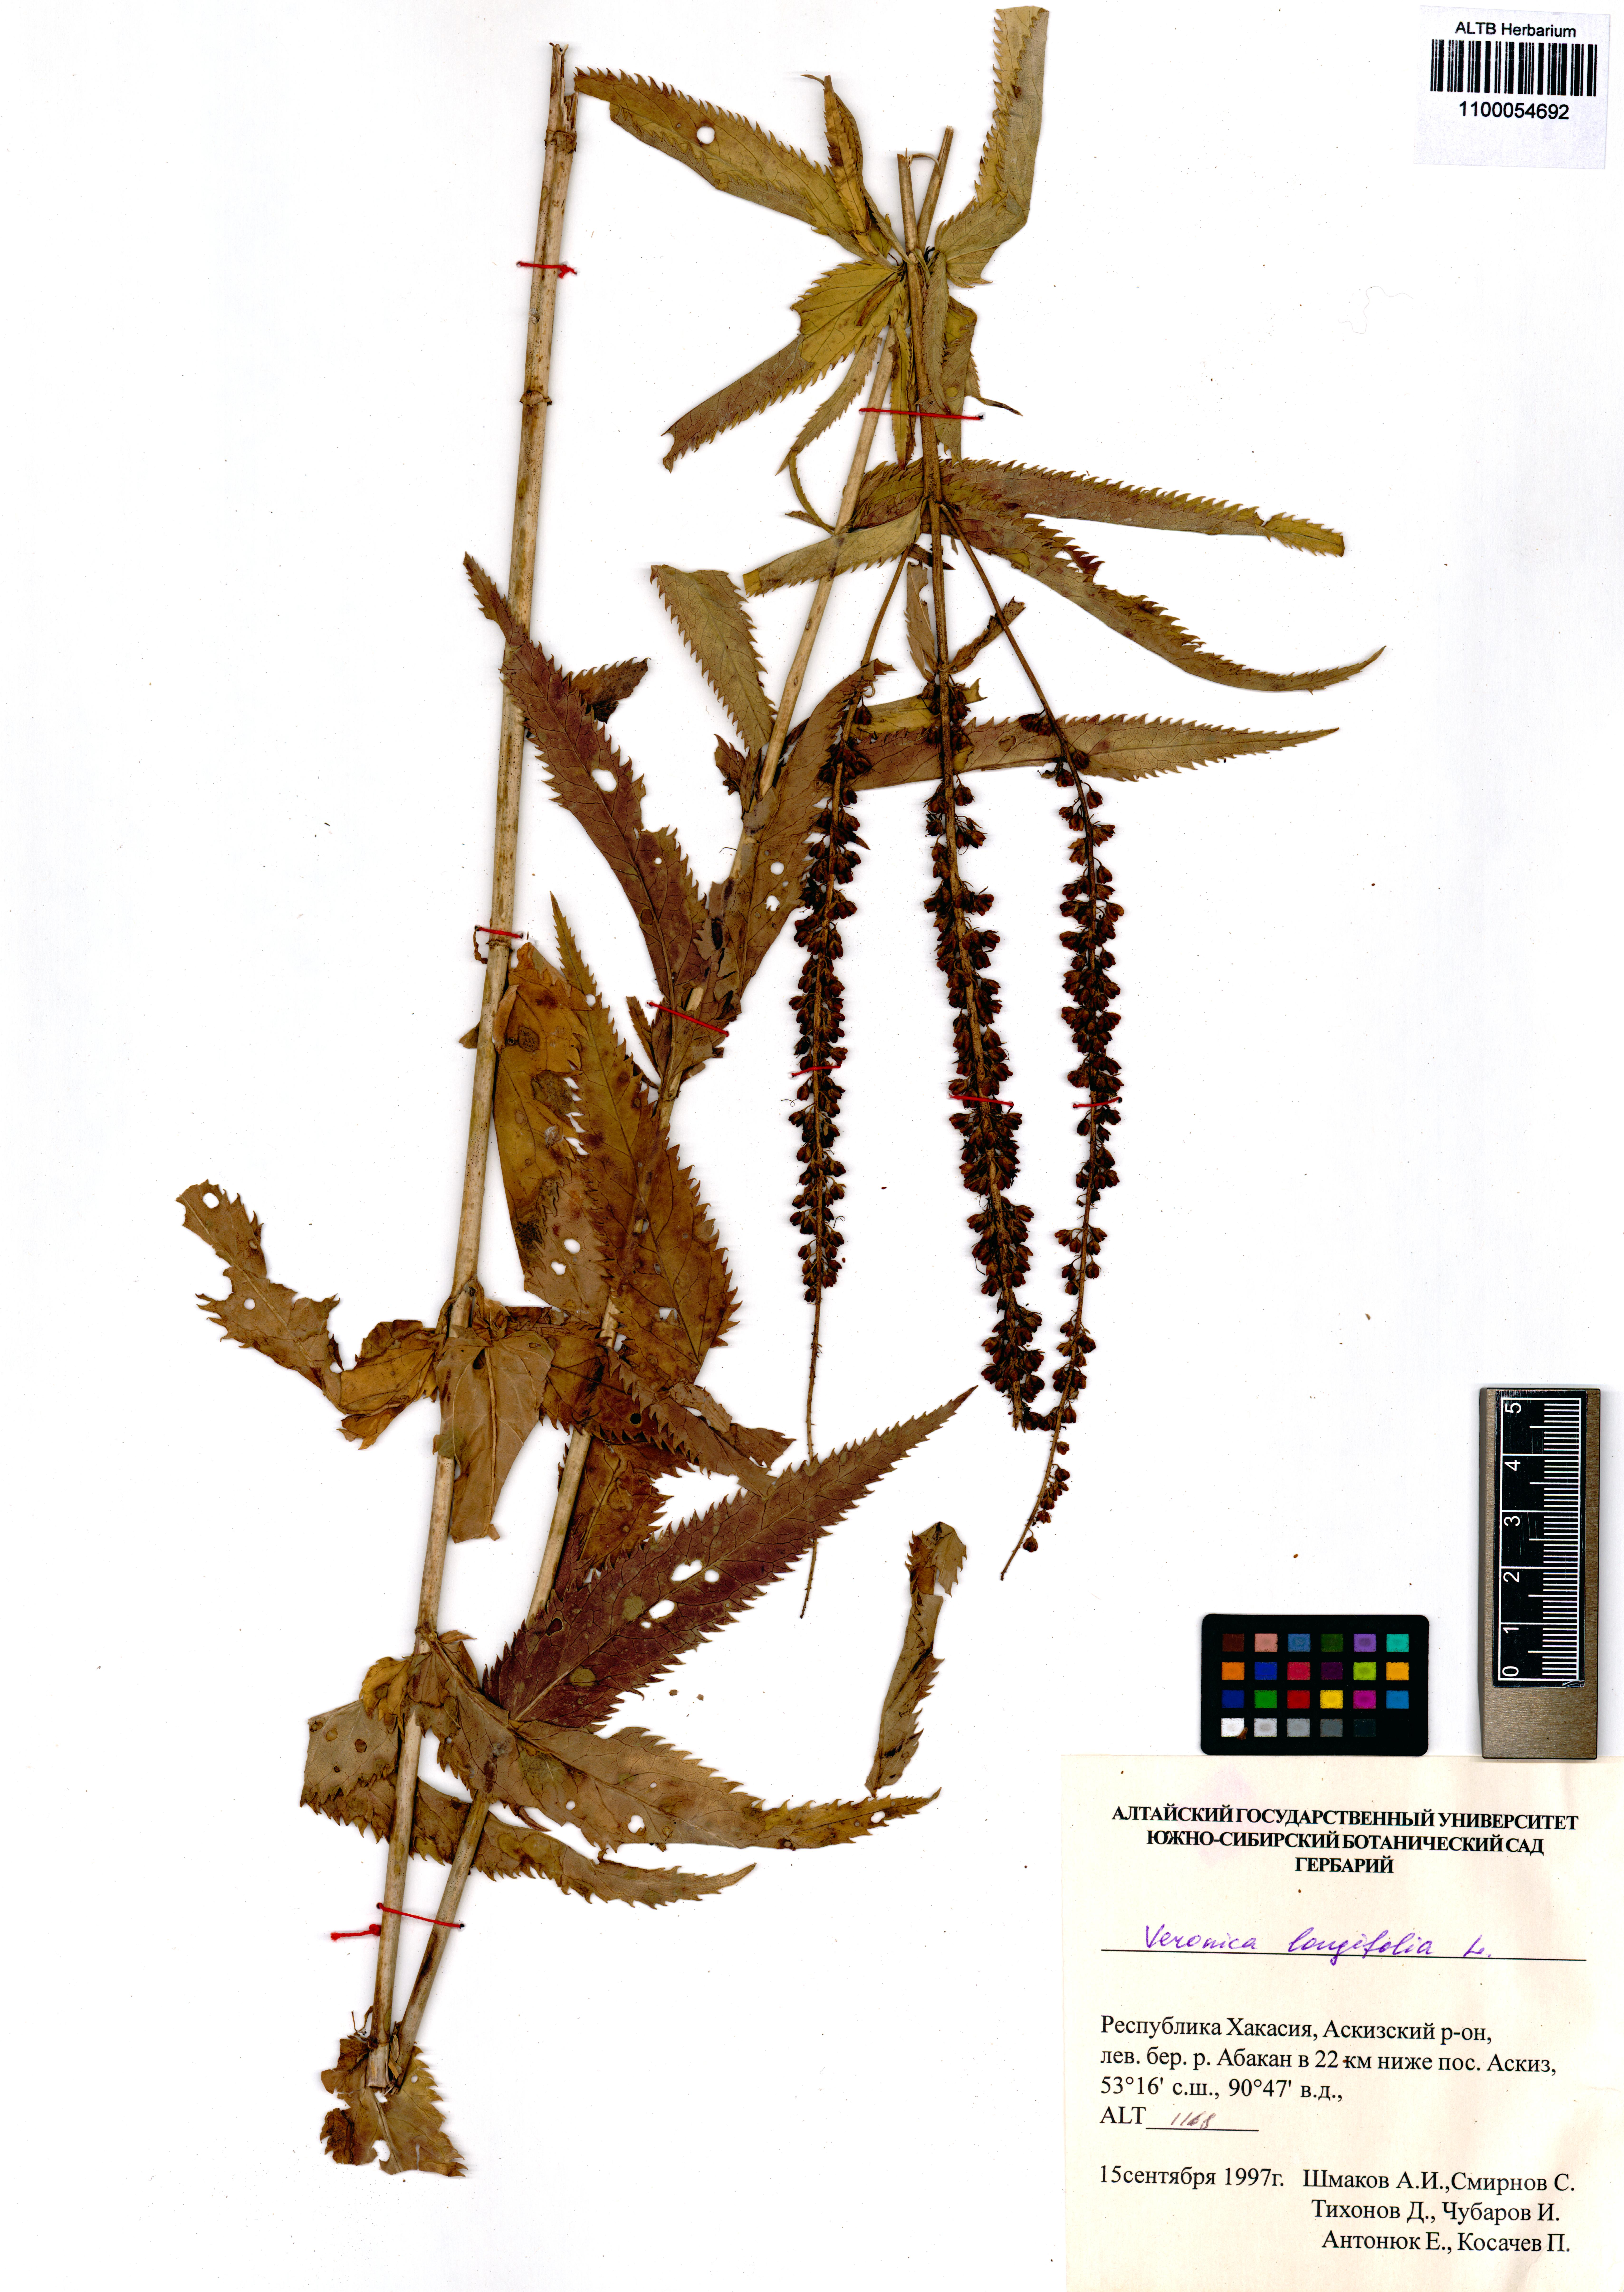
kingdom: Plantae
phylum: Tracheophyta
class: Magnoliopsida
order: Lamiales
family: Plantaginaceae
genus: Veronica
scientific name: Veronica longifolia
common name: Garden speedwell
